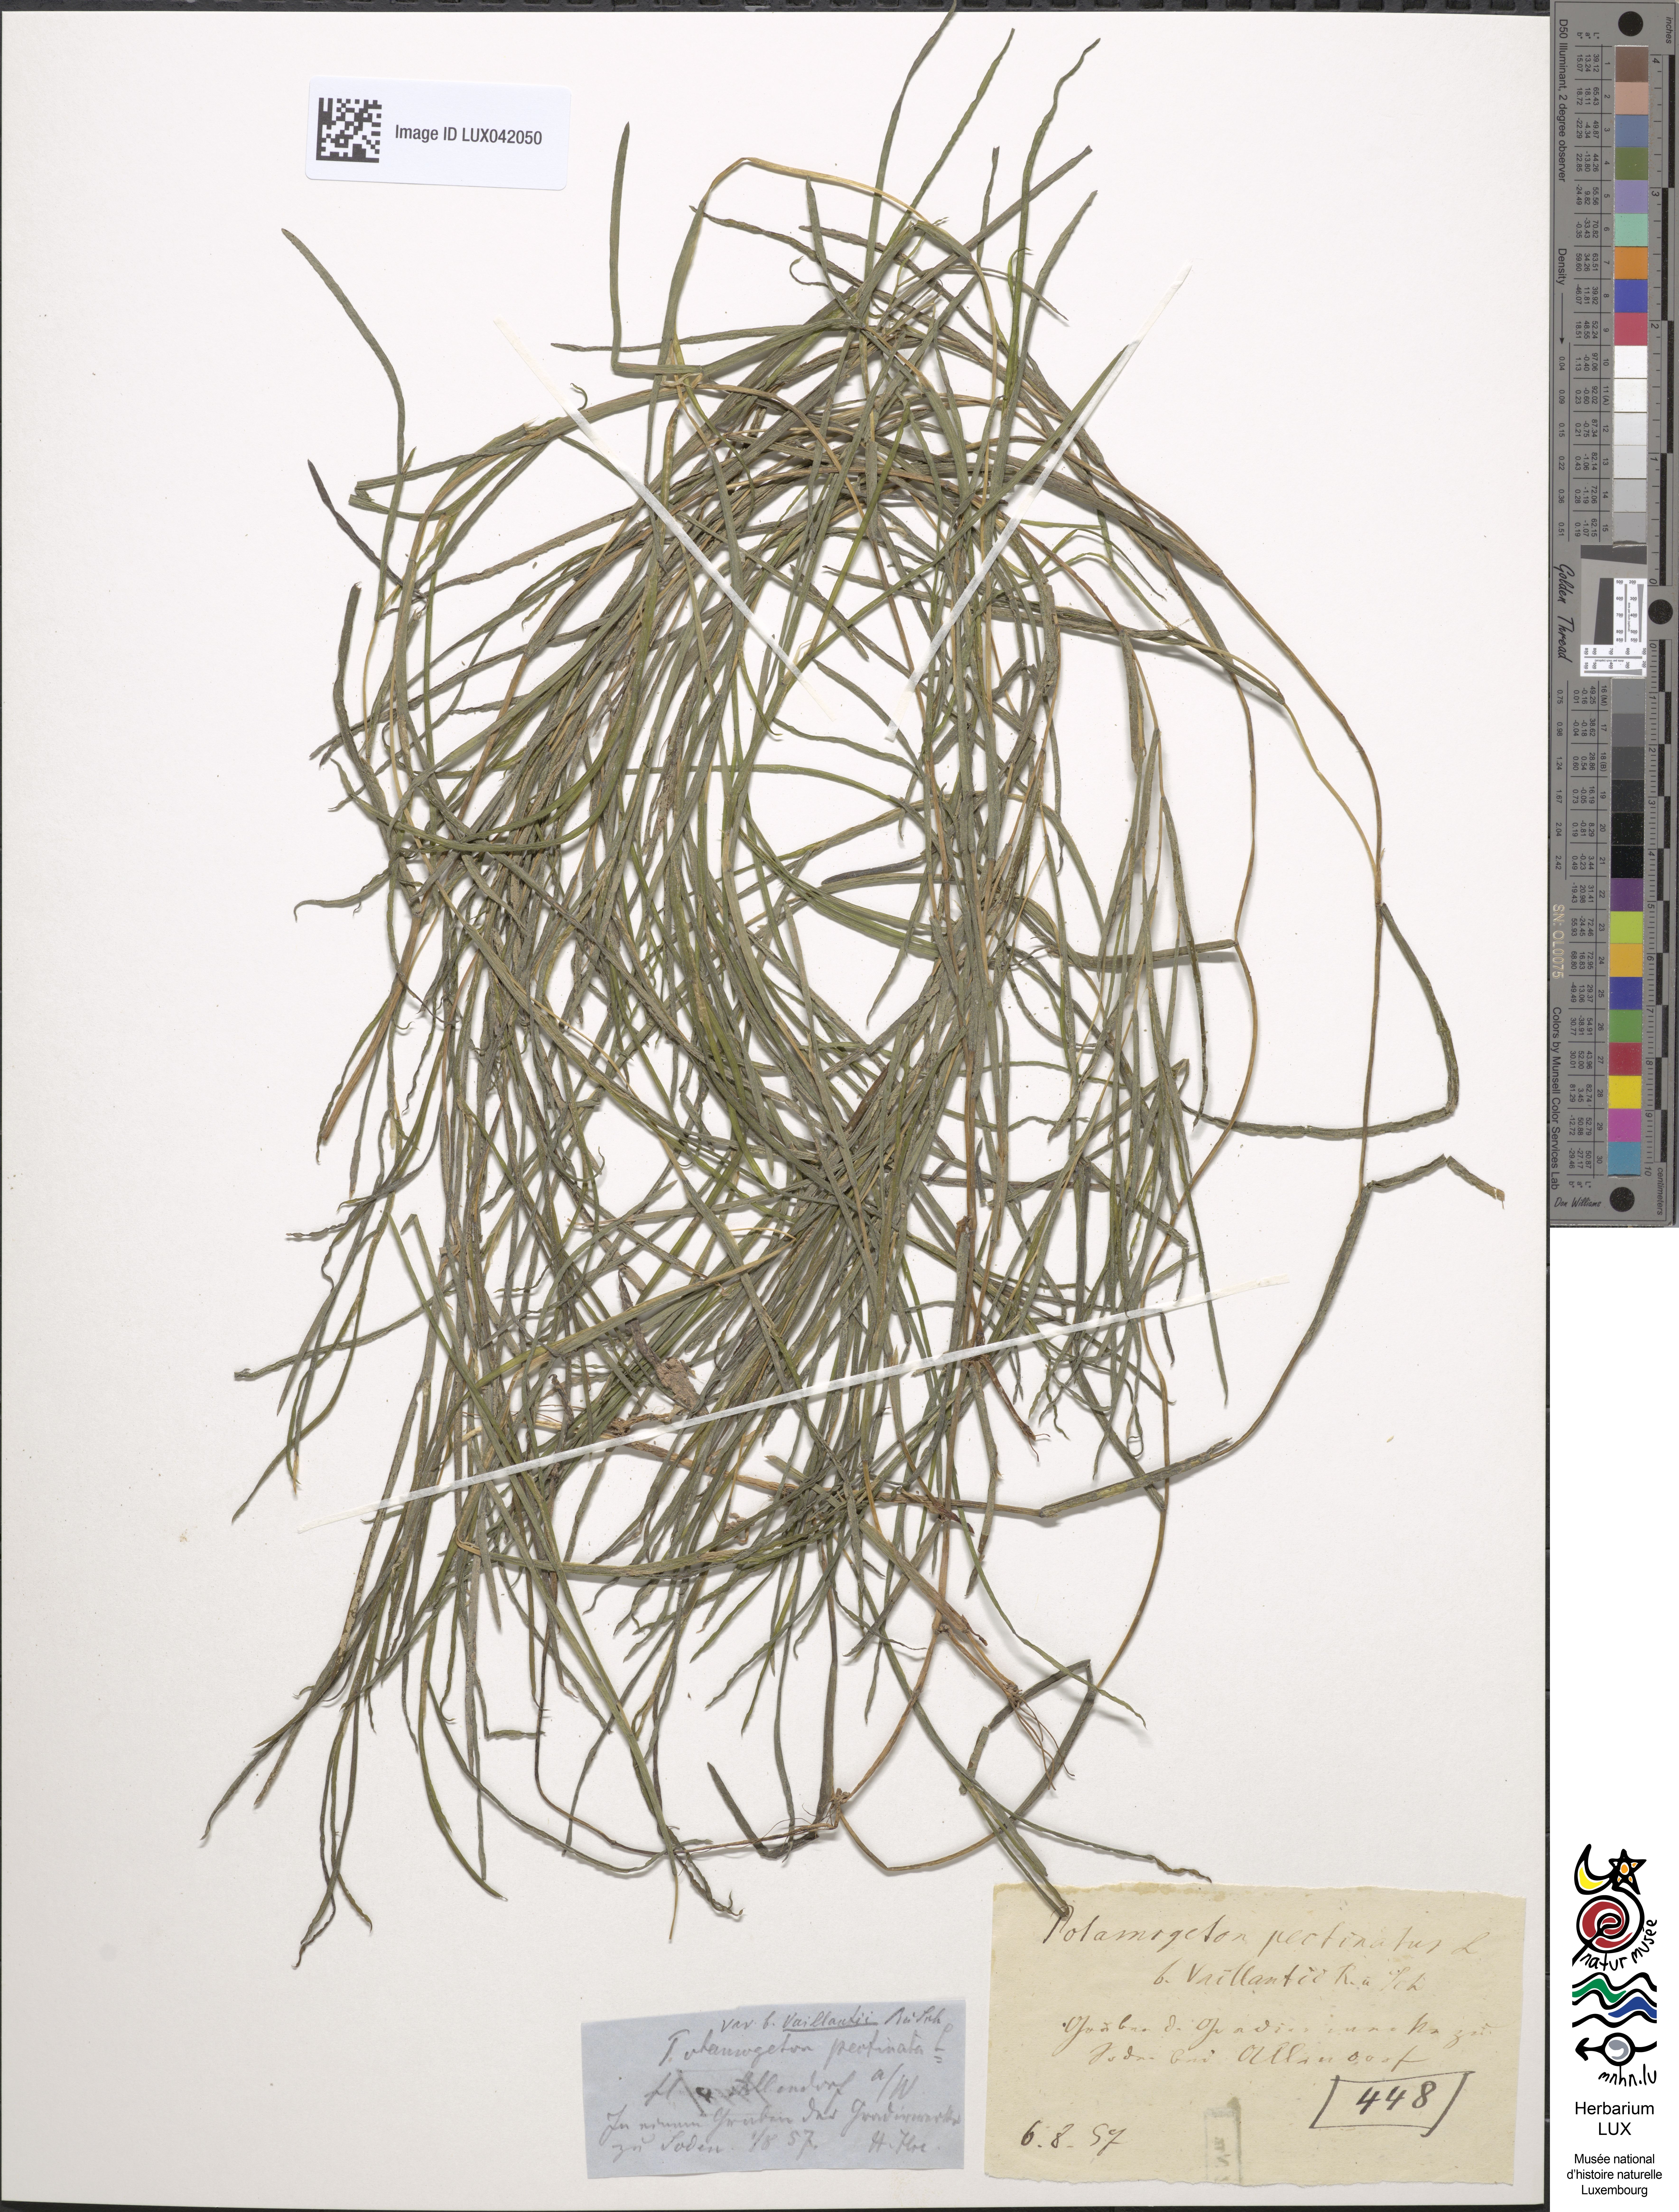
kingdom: Plantae
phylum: Tracheophyta
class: Liliopsida
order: Alismatales
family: Potamogetonaceae
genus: Stuckenia
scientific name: Stuckenia pectinata
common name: Sago pondweed
